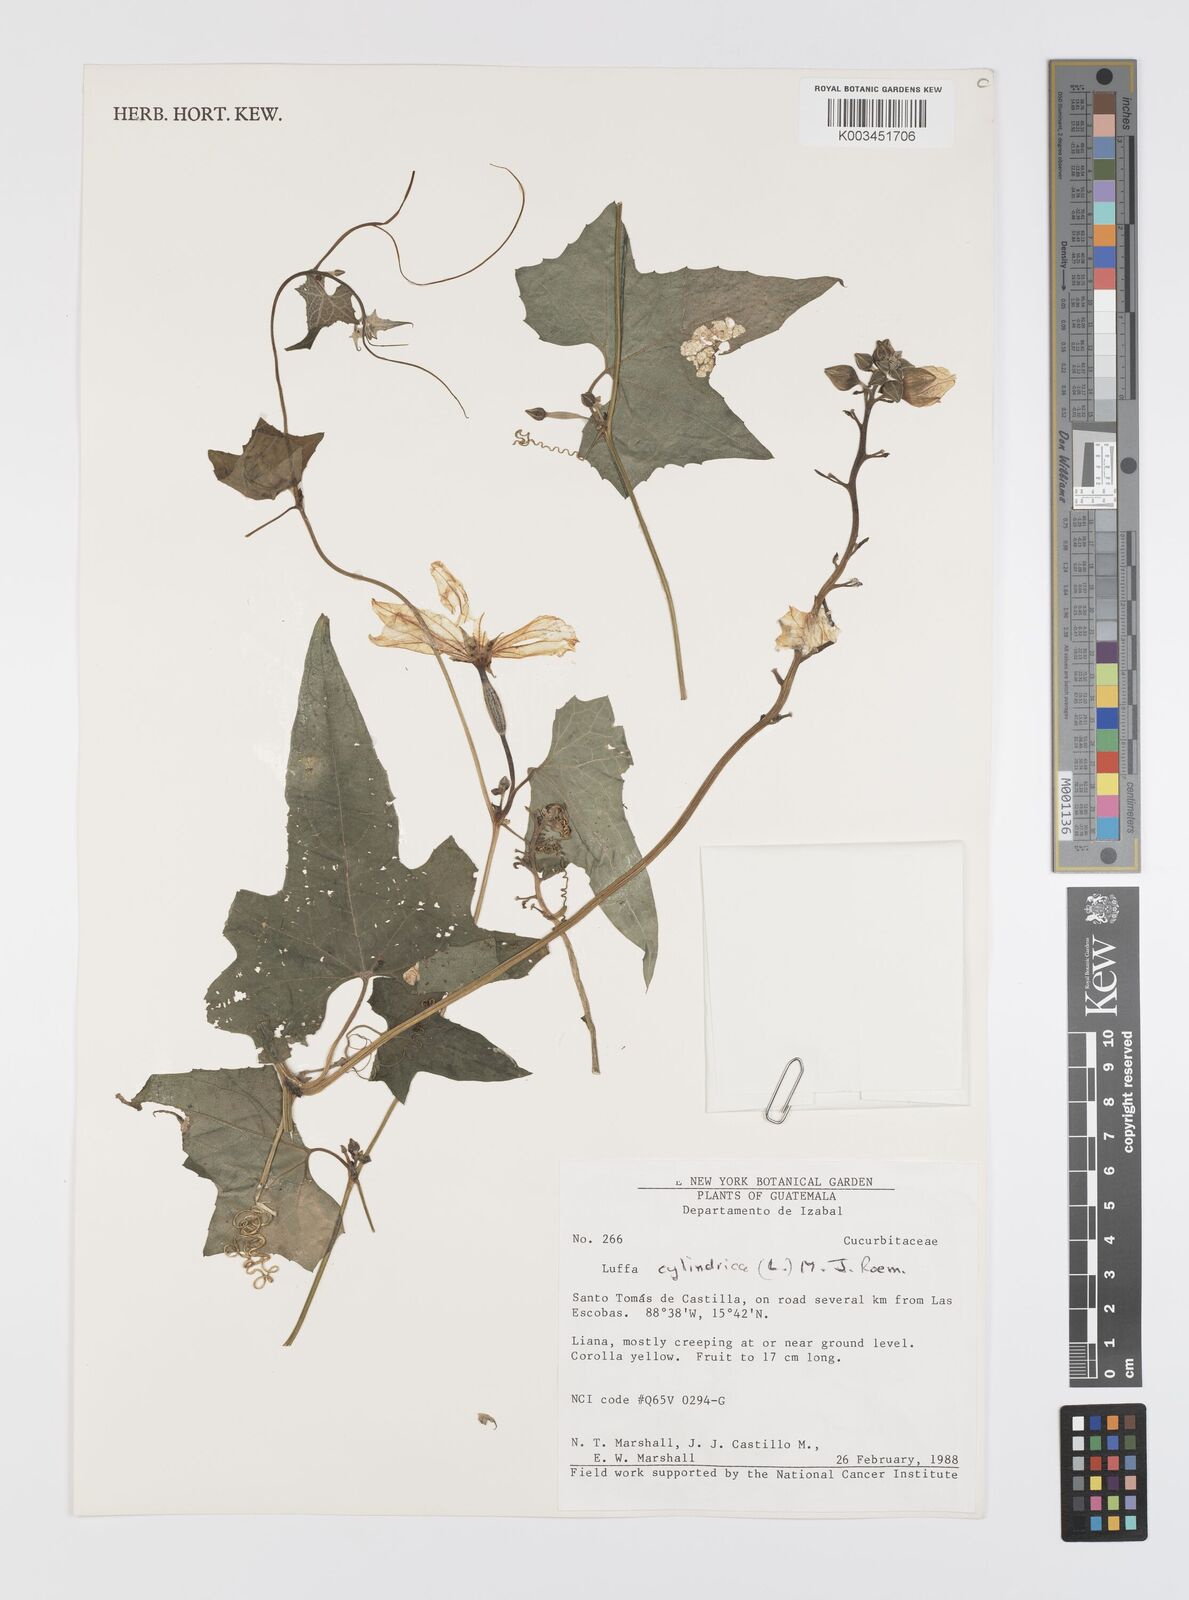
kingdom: Plantae
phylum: Tracheophyta
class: Magnoliopsida
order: Cucurbitales
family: Cucurbitaceae
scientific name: Cucurbitaceae
